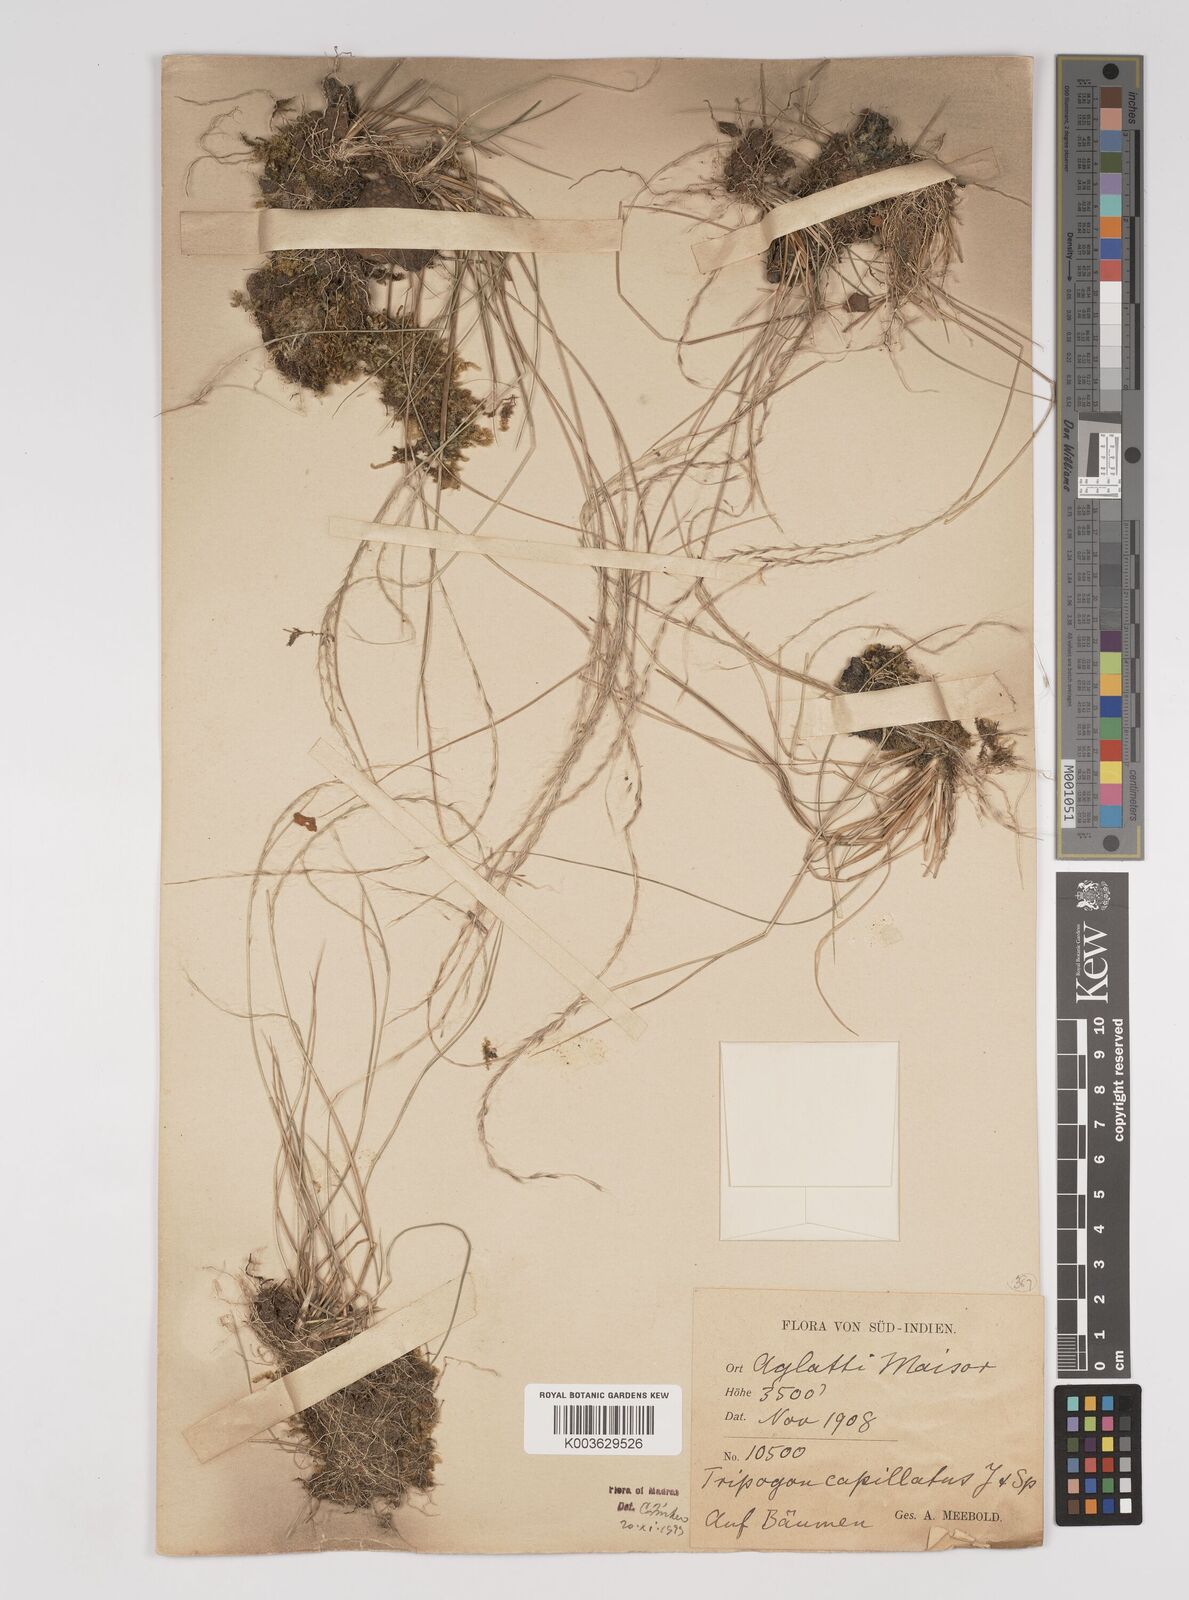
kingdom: Plantae
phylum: Tracheophyta
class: Liliopsida
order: Poales
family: Poaceae
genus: Tripogon
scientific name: Tripogon capillatus
